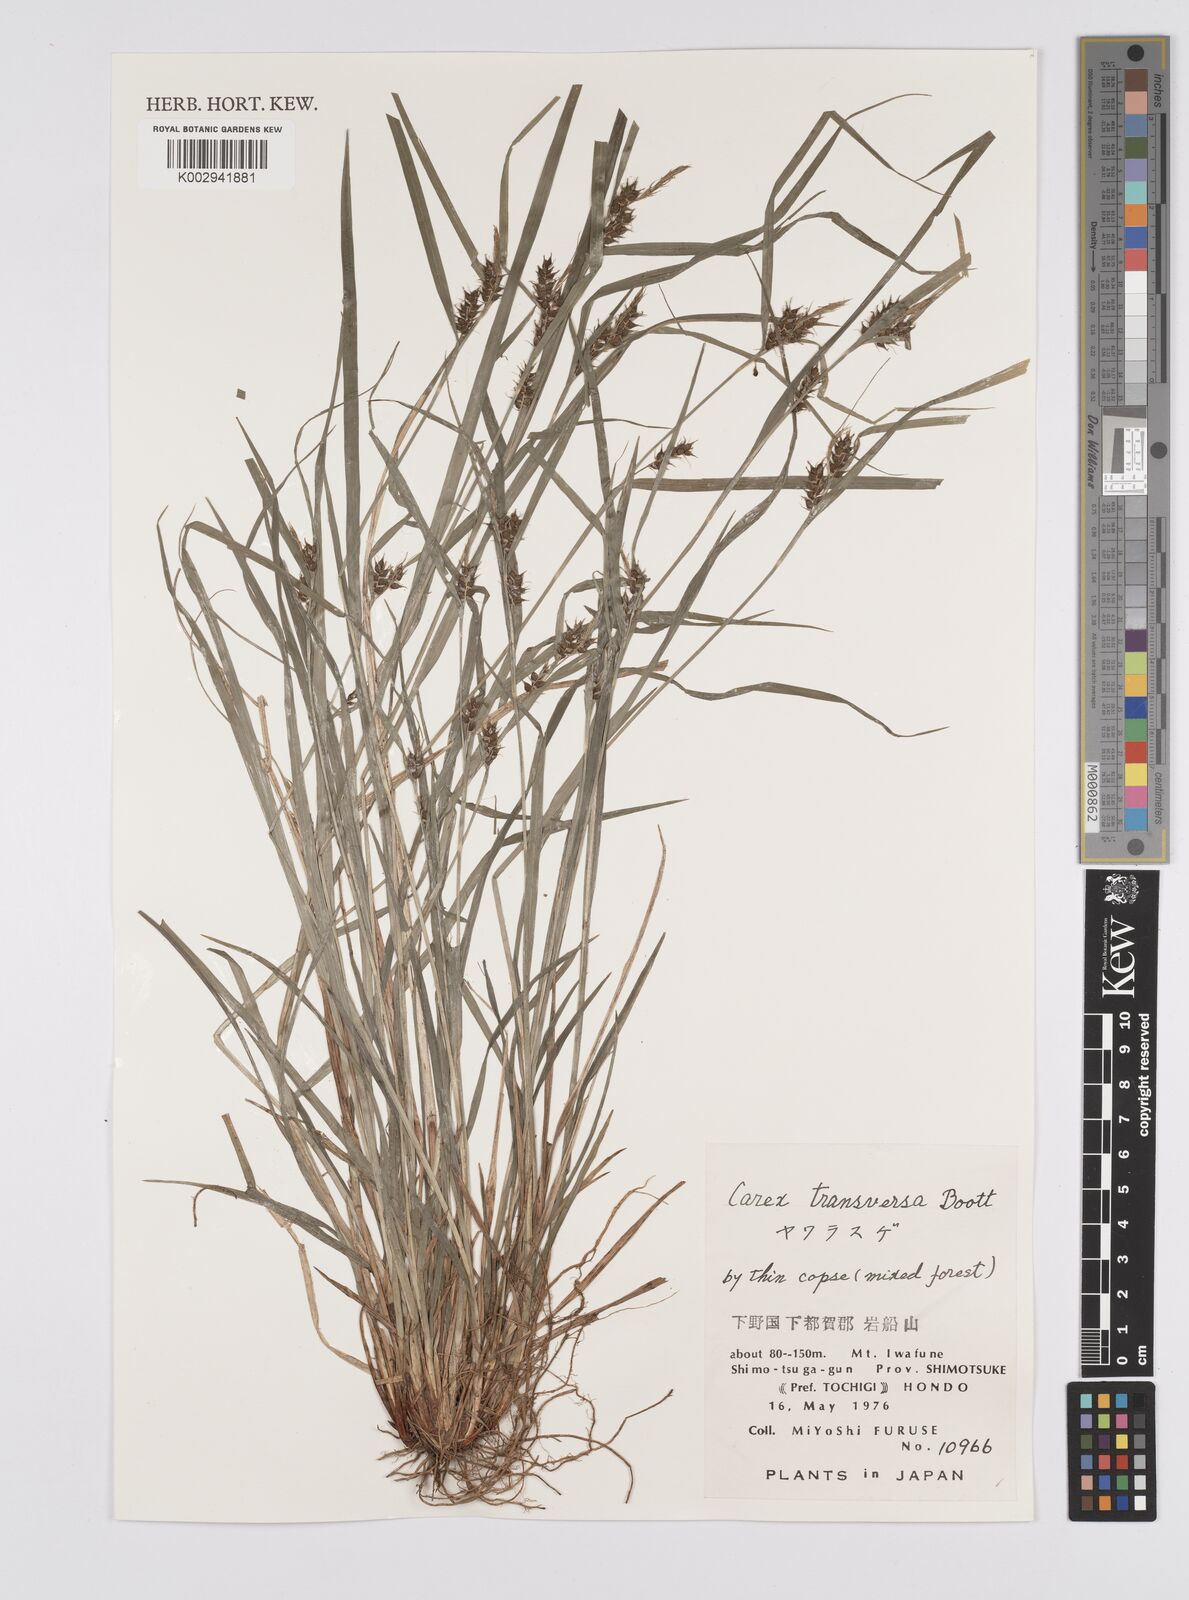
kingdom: Plantae
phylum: Tracheophyta
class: Liliopsida
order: Poales
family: Cyperaceae
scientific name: Cyperaceae
